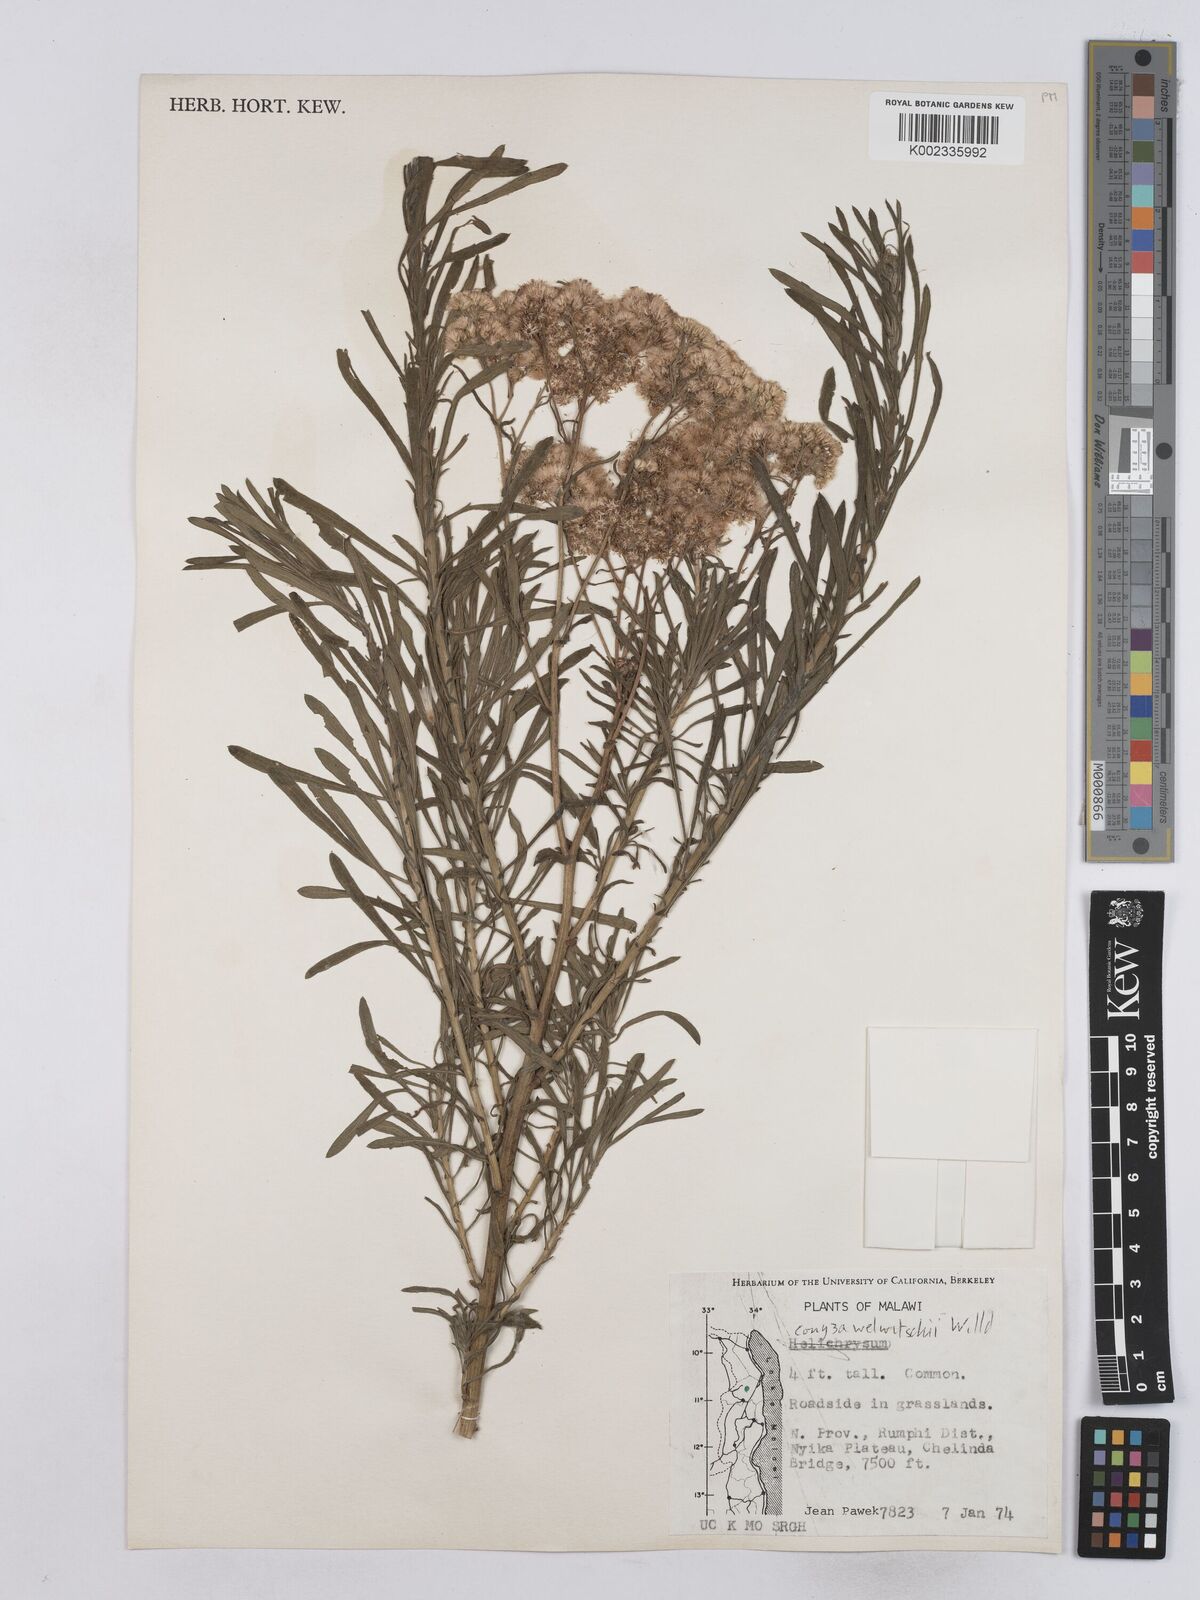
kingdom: Plantae
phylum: Tracheophyta
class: Magnoliopsida
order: Asterales
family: Asteraceae
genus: Nidorella
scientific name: Nidorella welwitschii
